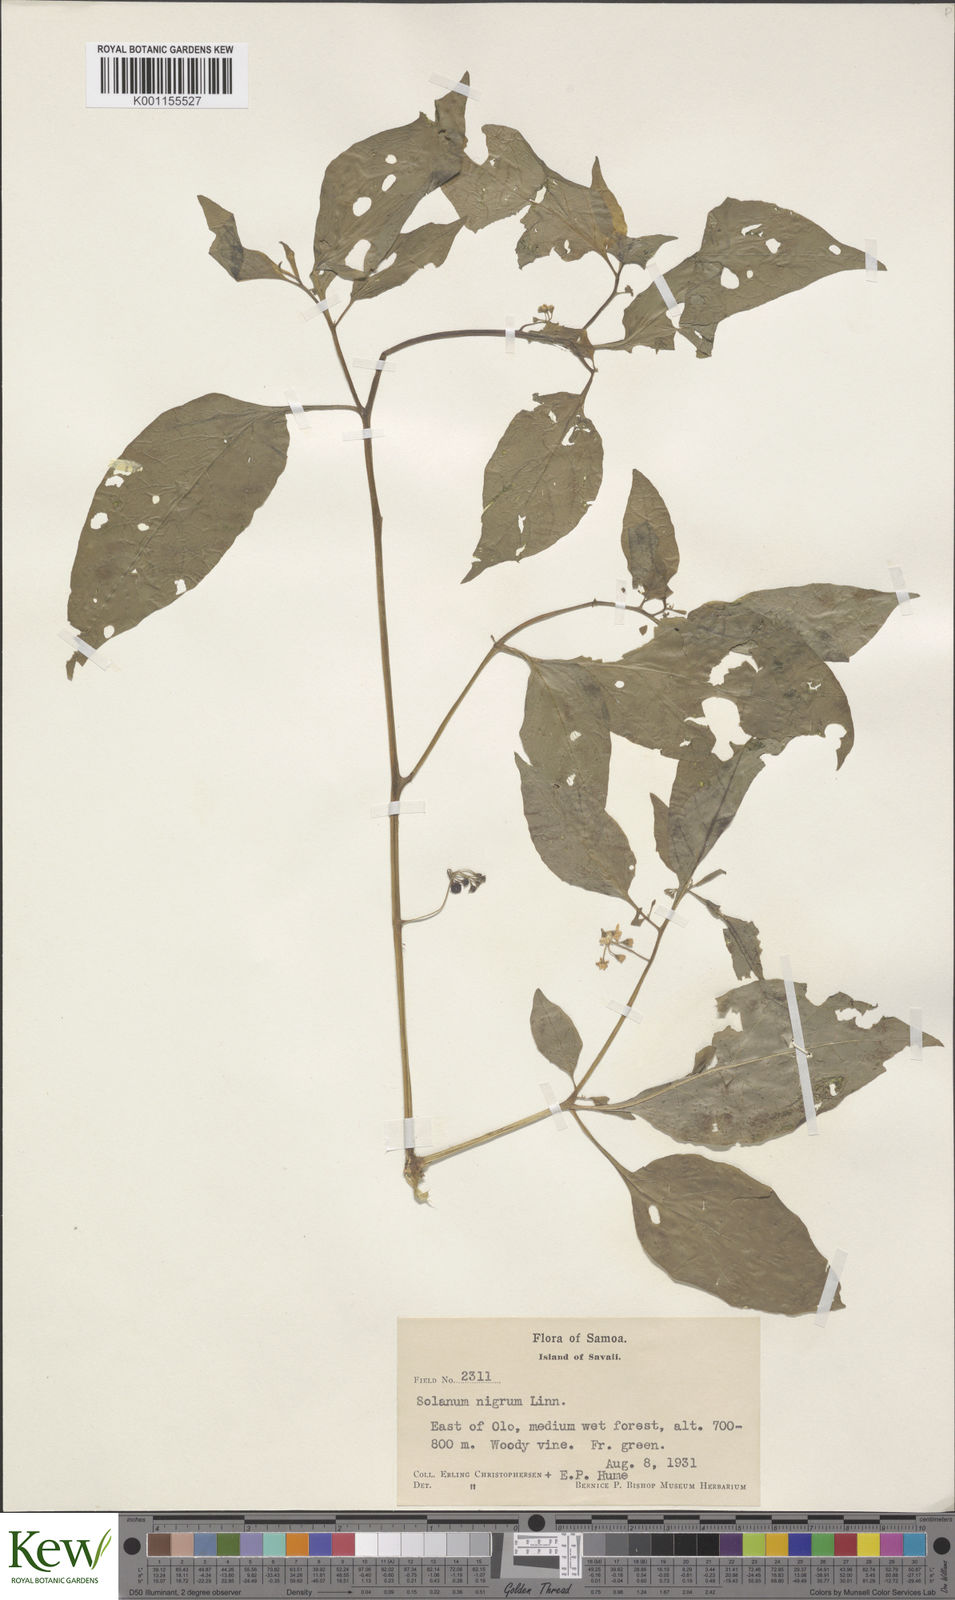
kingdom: Plantae
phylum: Tracheophyta
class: Magnoliopsida
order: Solanales
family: Solanaceae
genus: Solanum
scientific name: Solanum
